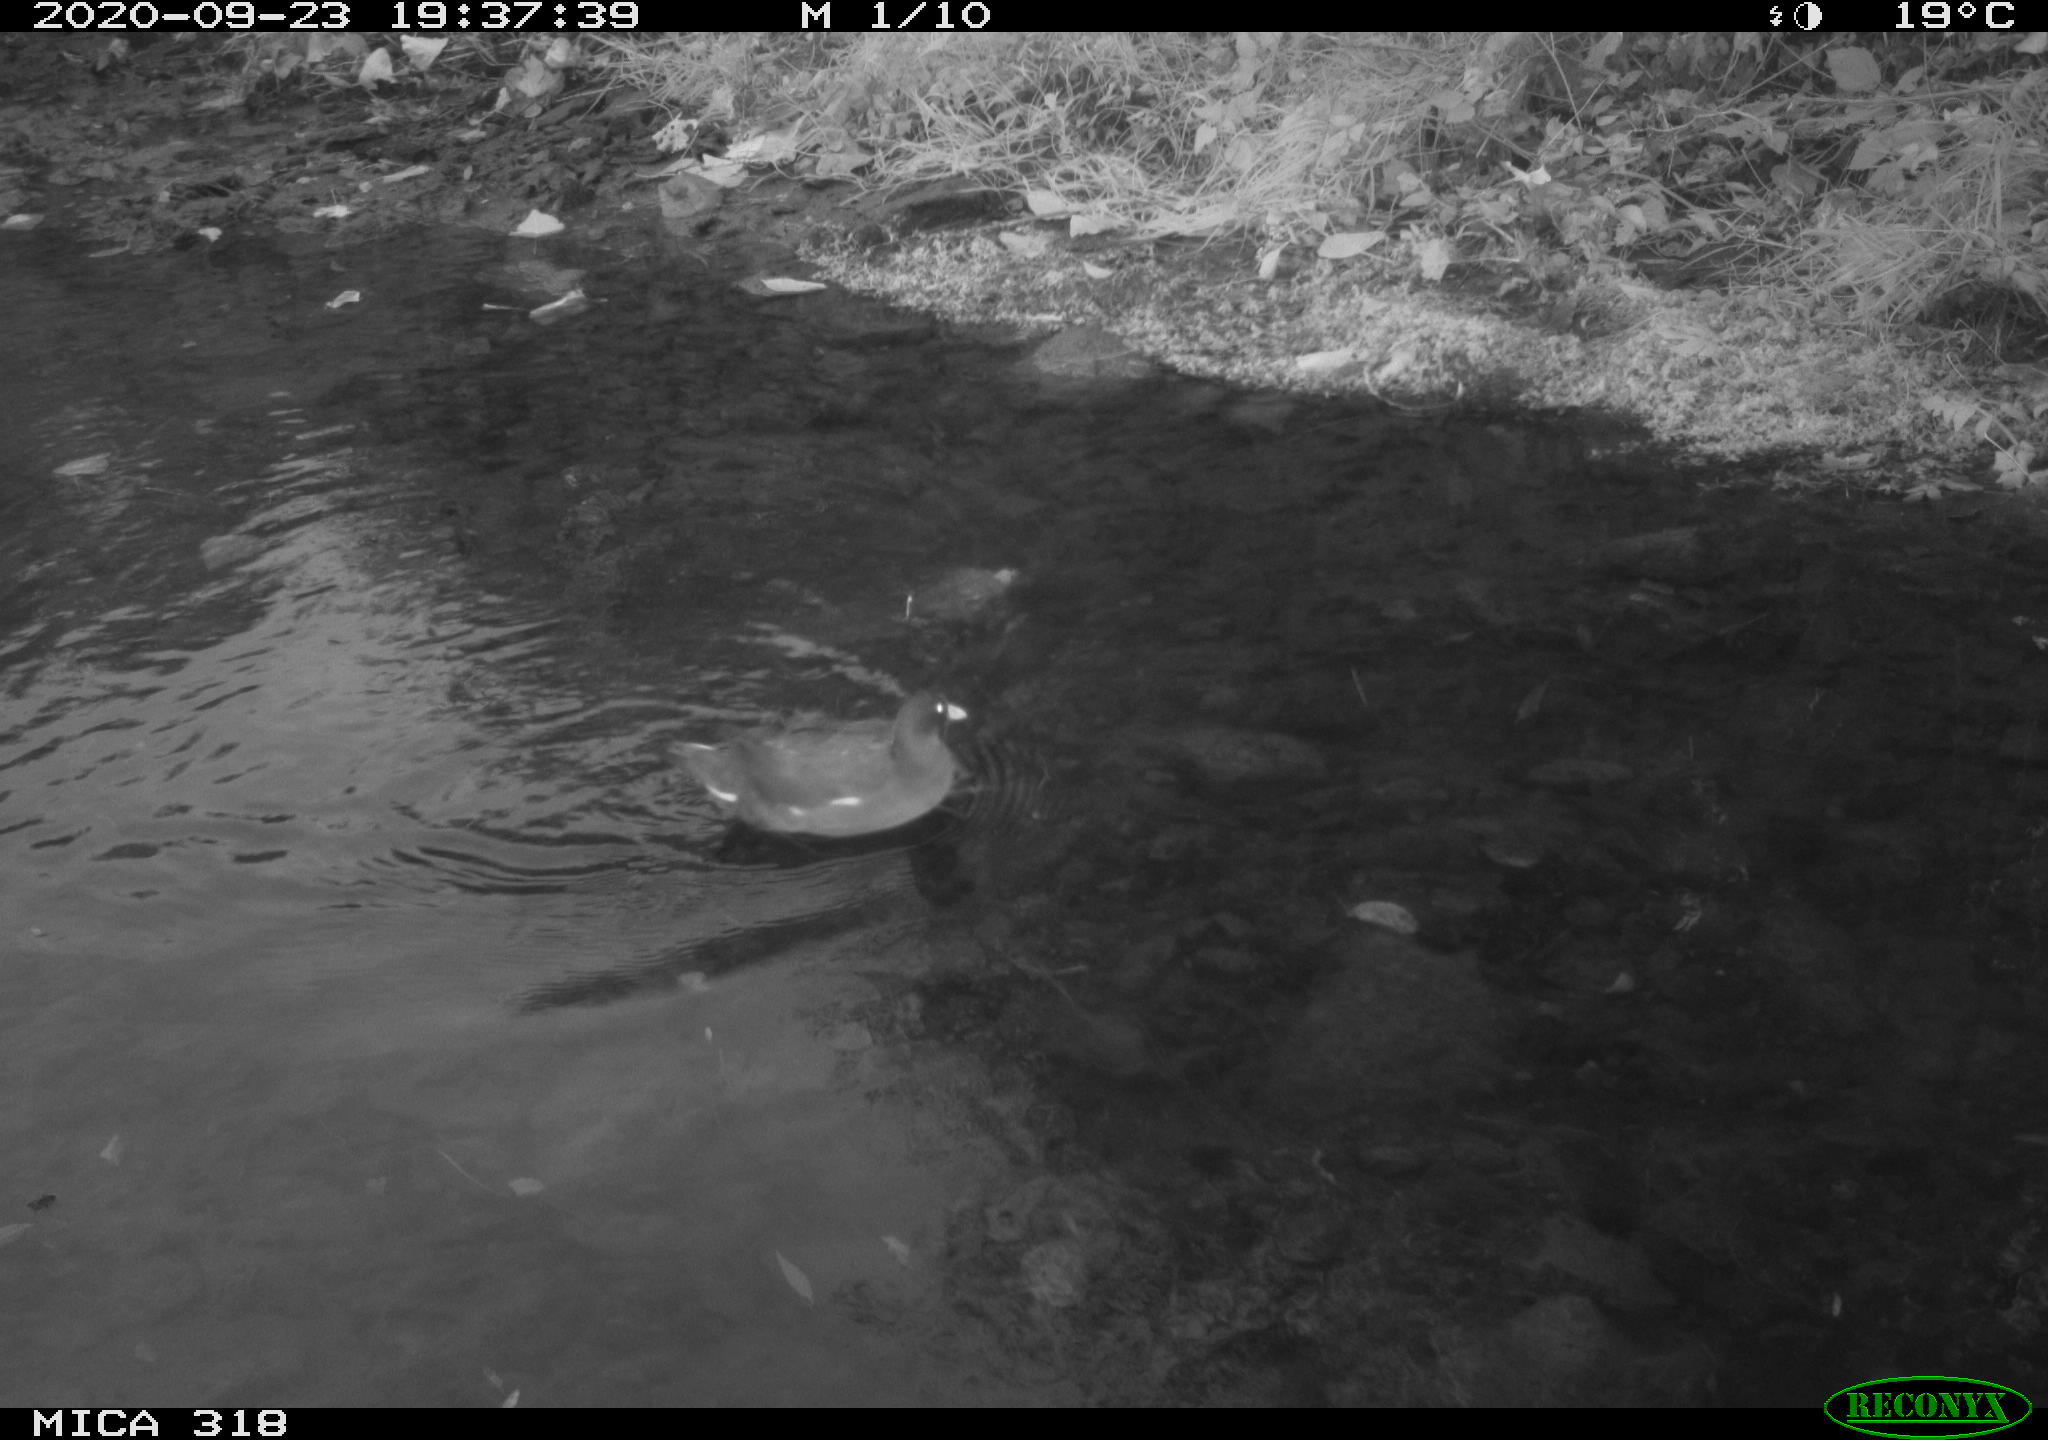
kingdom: Animalia
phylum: Chordata
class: Aves
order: Gruiformes
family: Rallidae
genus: Gallinula
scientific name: Gallinula chloropus
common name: Common moorhen
